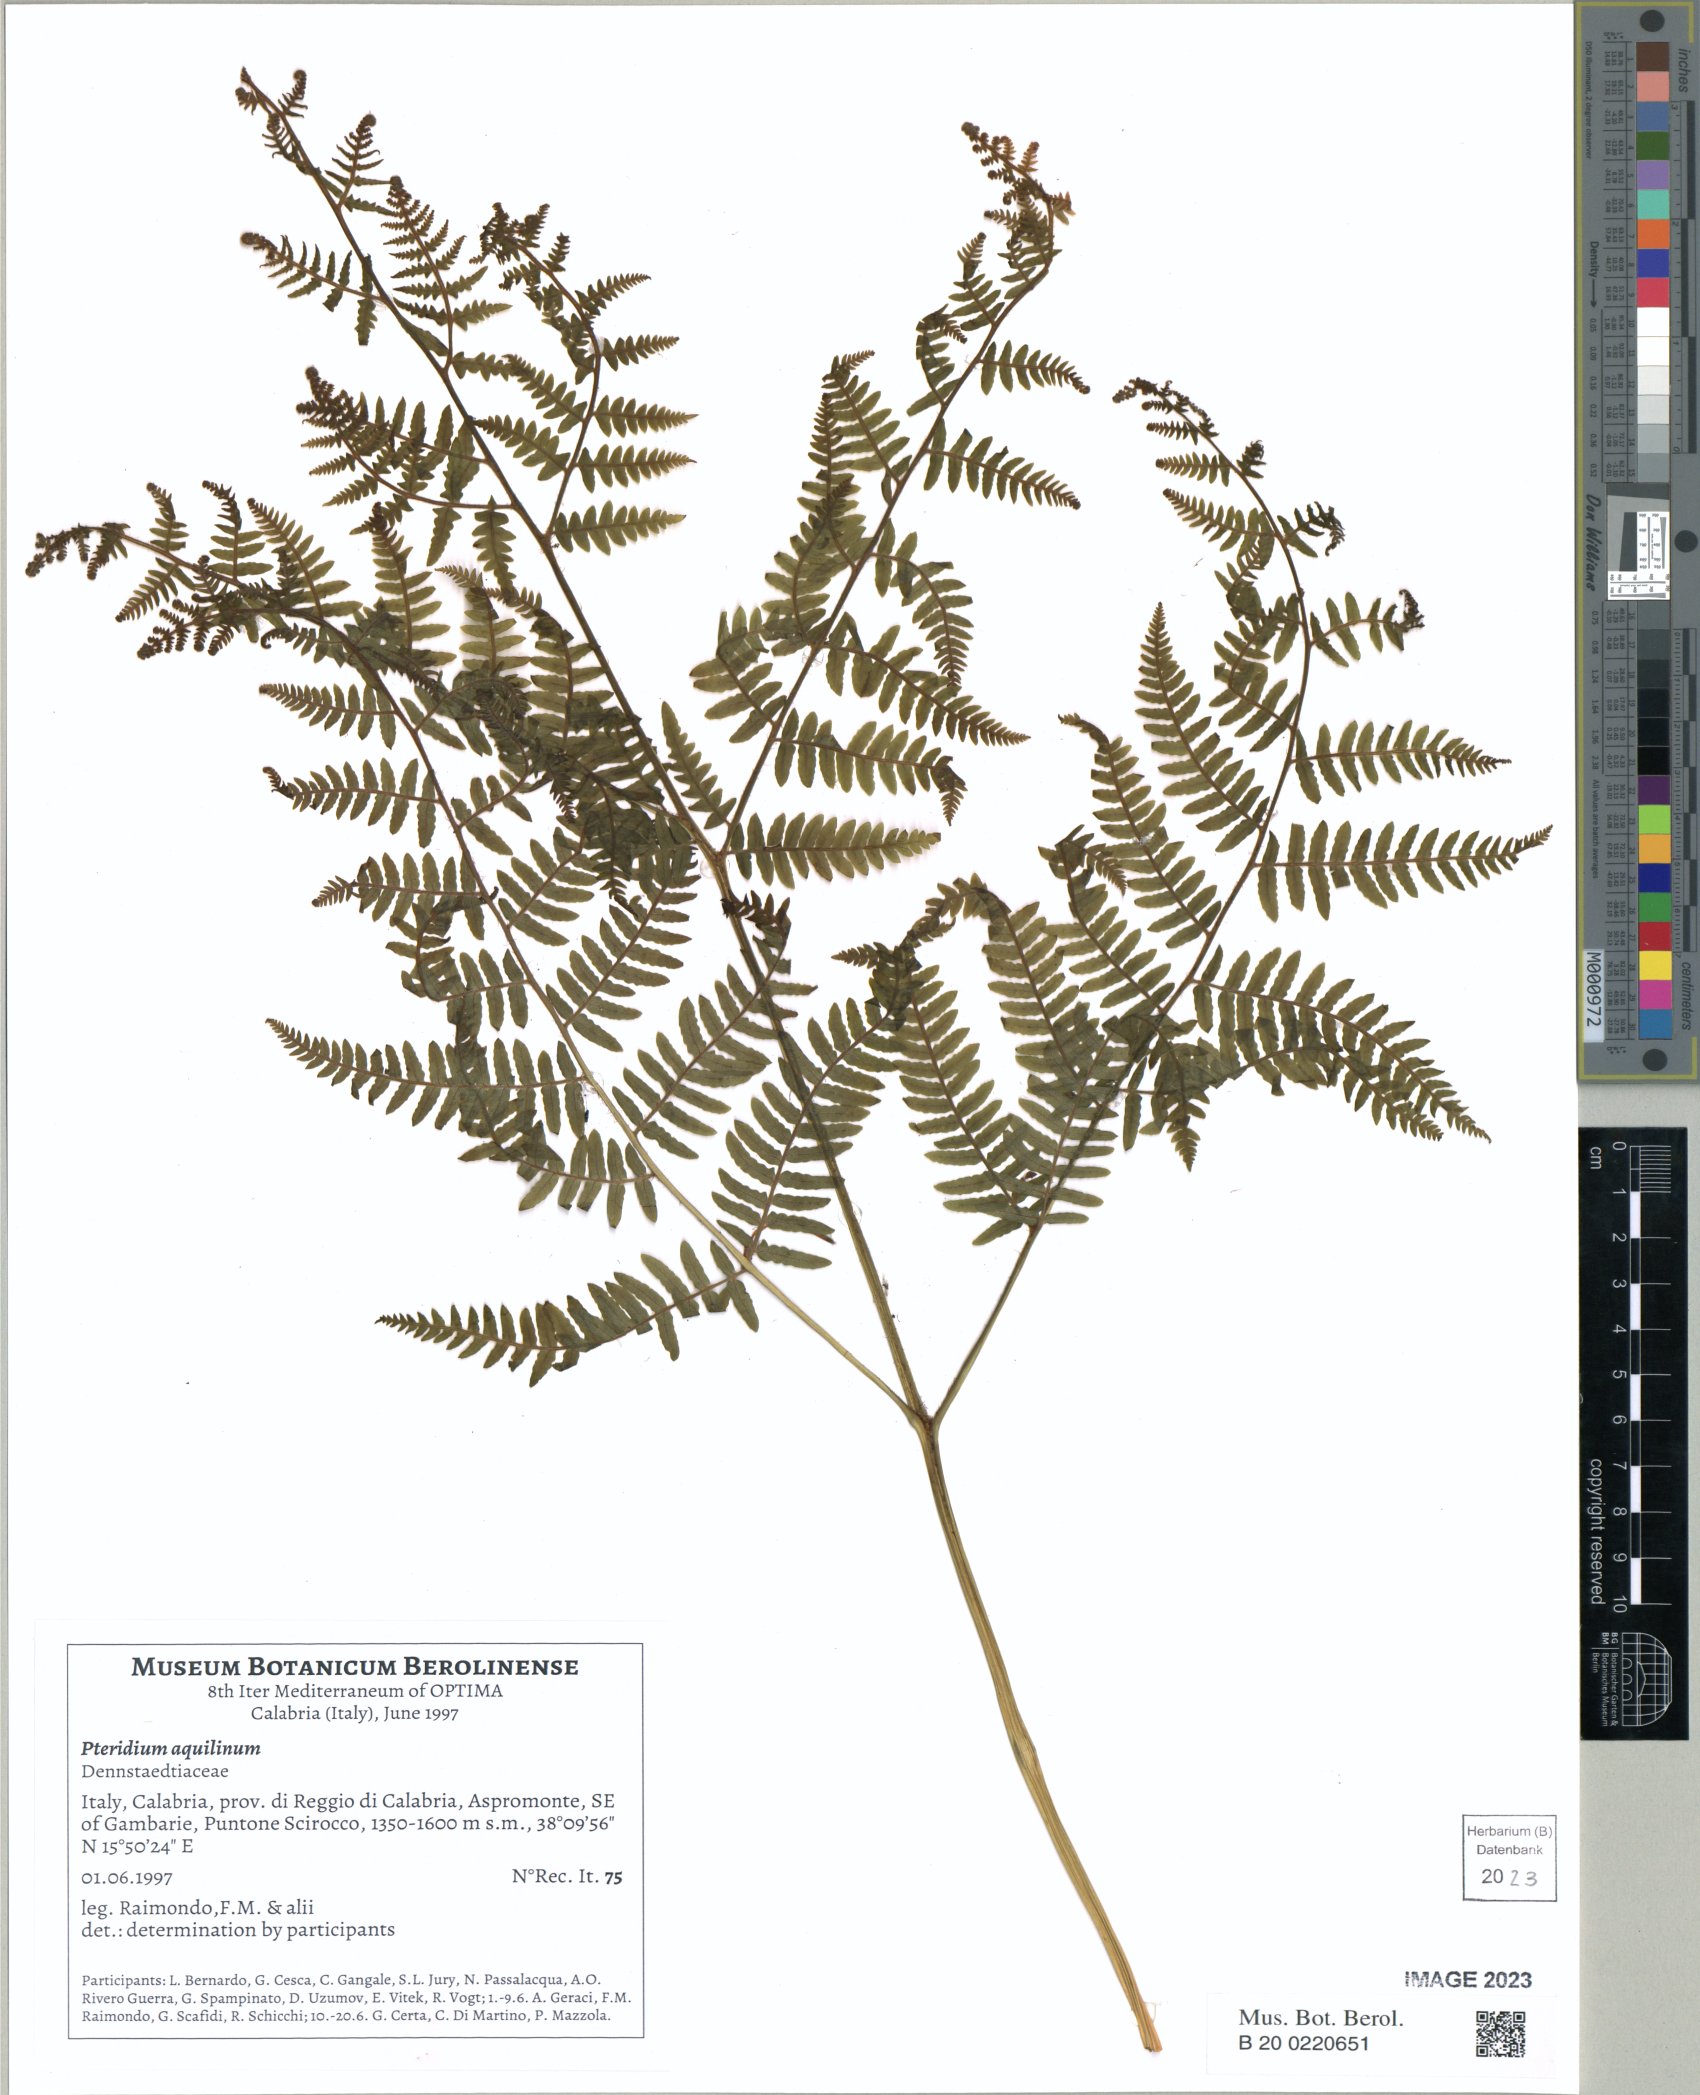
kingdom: Plantae
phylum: Tracheophyta
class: Polypodiopsida
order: Polypodiales
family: Dennstaedtiaceae
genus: Pteridium
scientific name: Pteridium aquilinum
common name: Bracken
